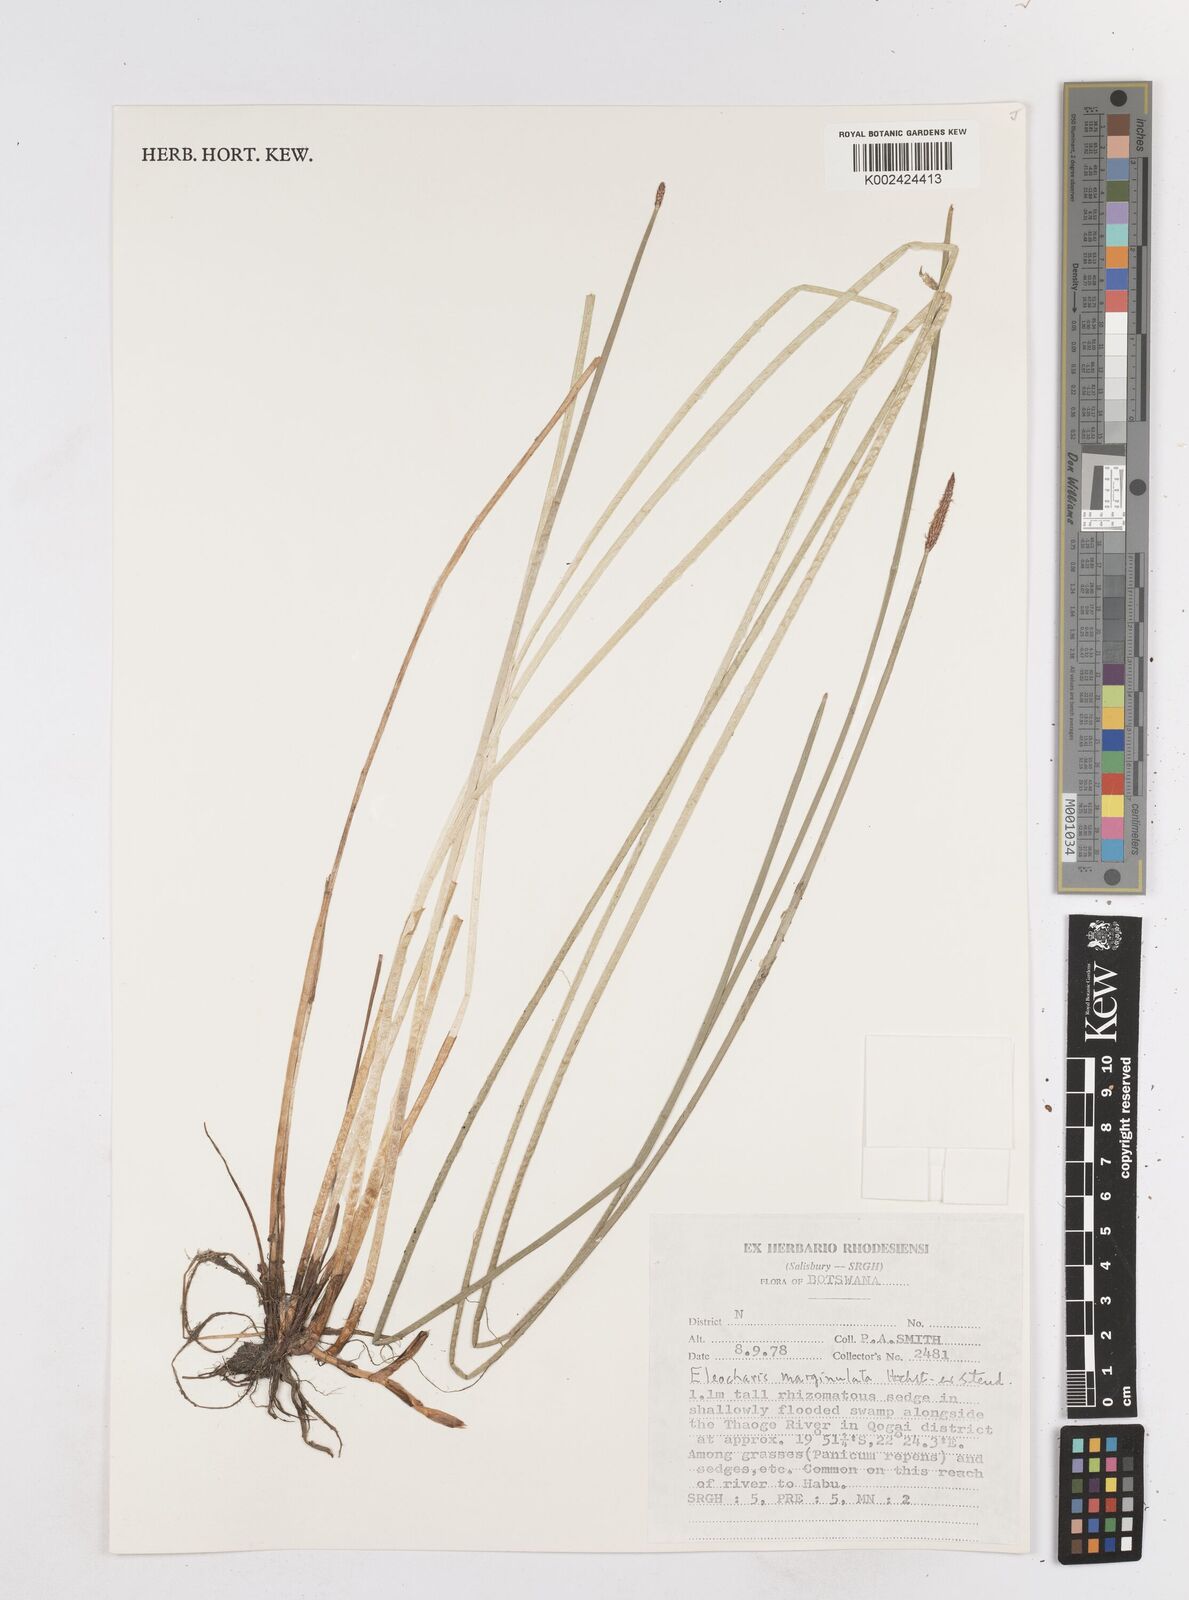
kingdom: Plantae
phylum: Tracheophyta
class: Liliopsida
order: Poales
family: Cyperaceae
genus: Eleocharis
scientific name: Eleocharis marginulata
